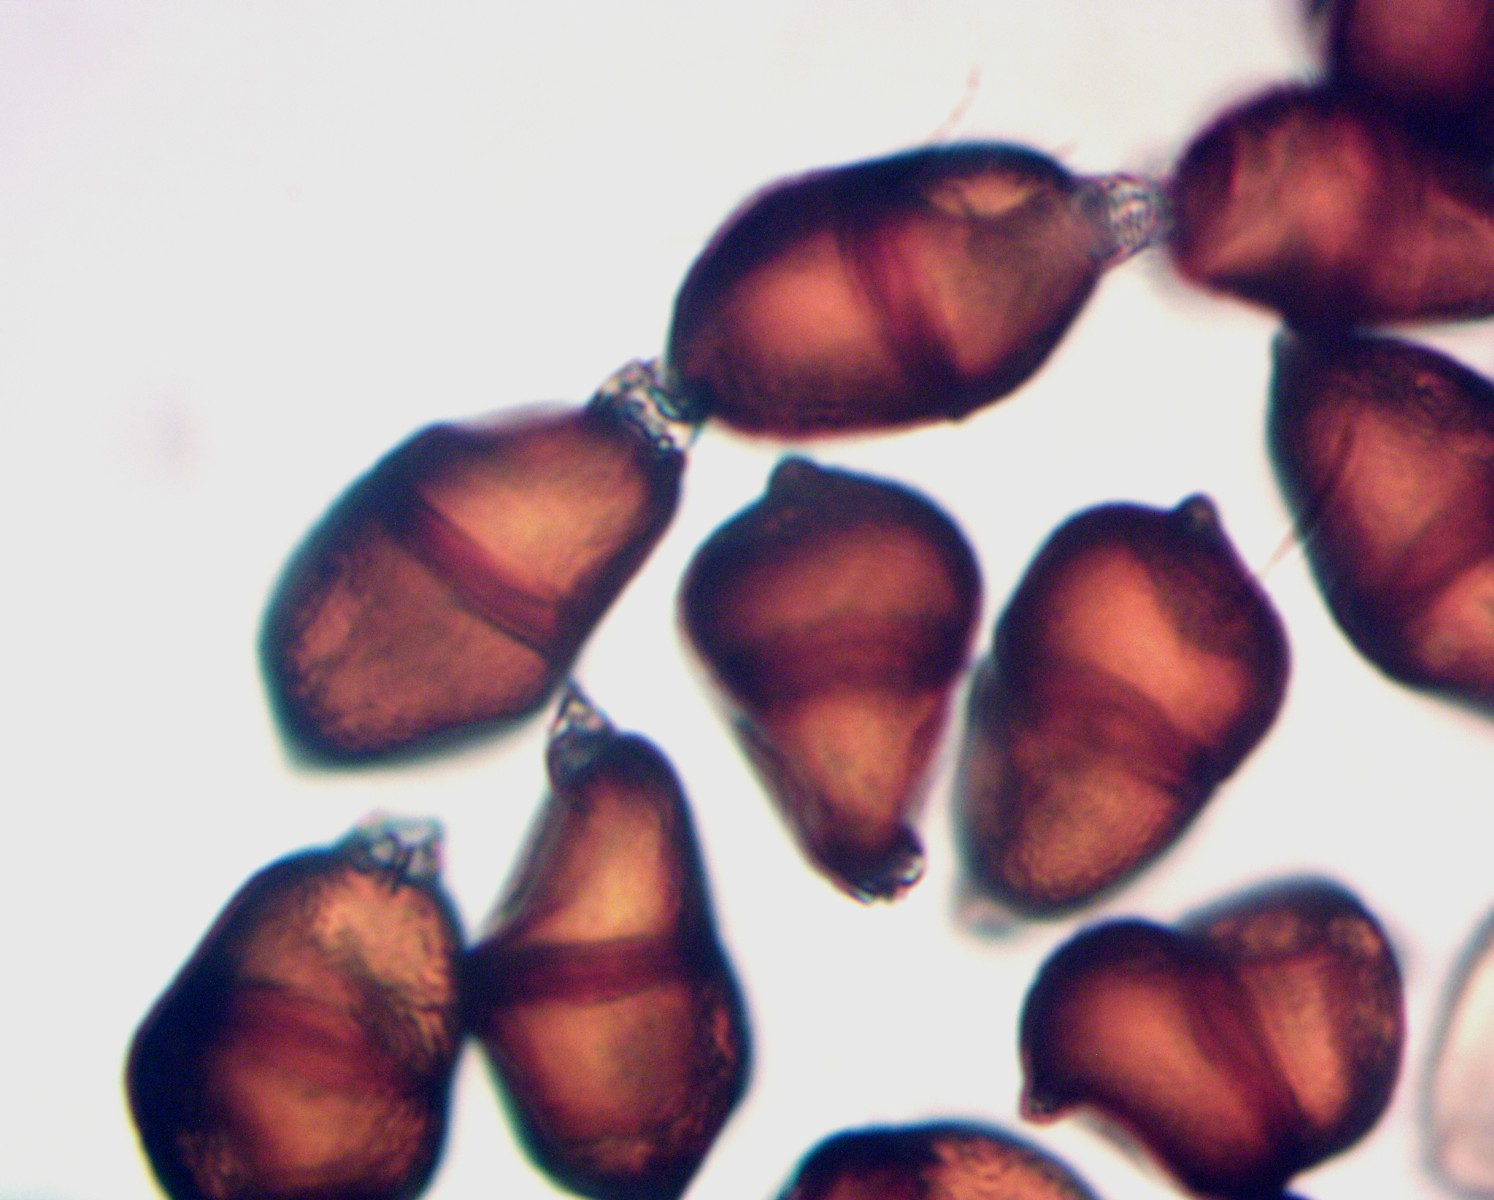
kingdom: Fungi
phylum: Basidiomycota
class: Pucciniomycetes
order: Pucciniales
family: Pucciniaceae
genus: Puccinia
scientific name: Puccinia komarovii
